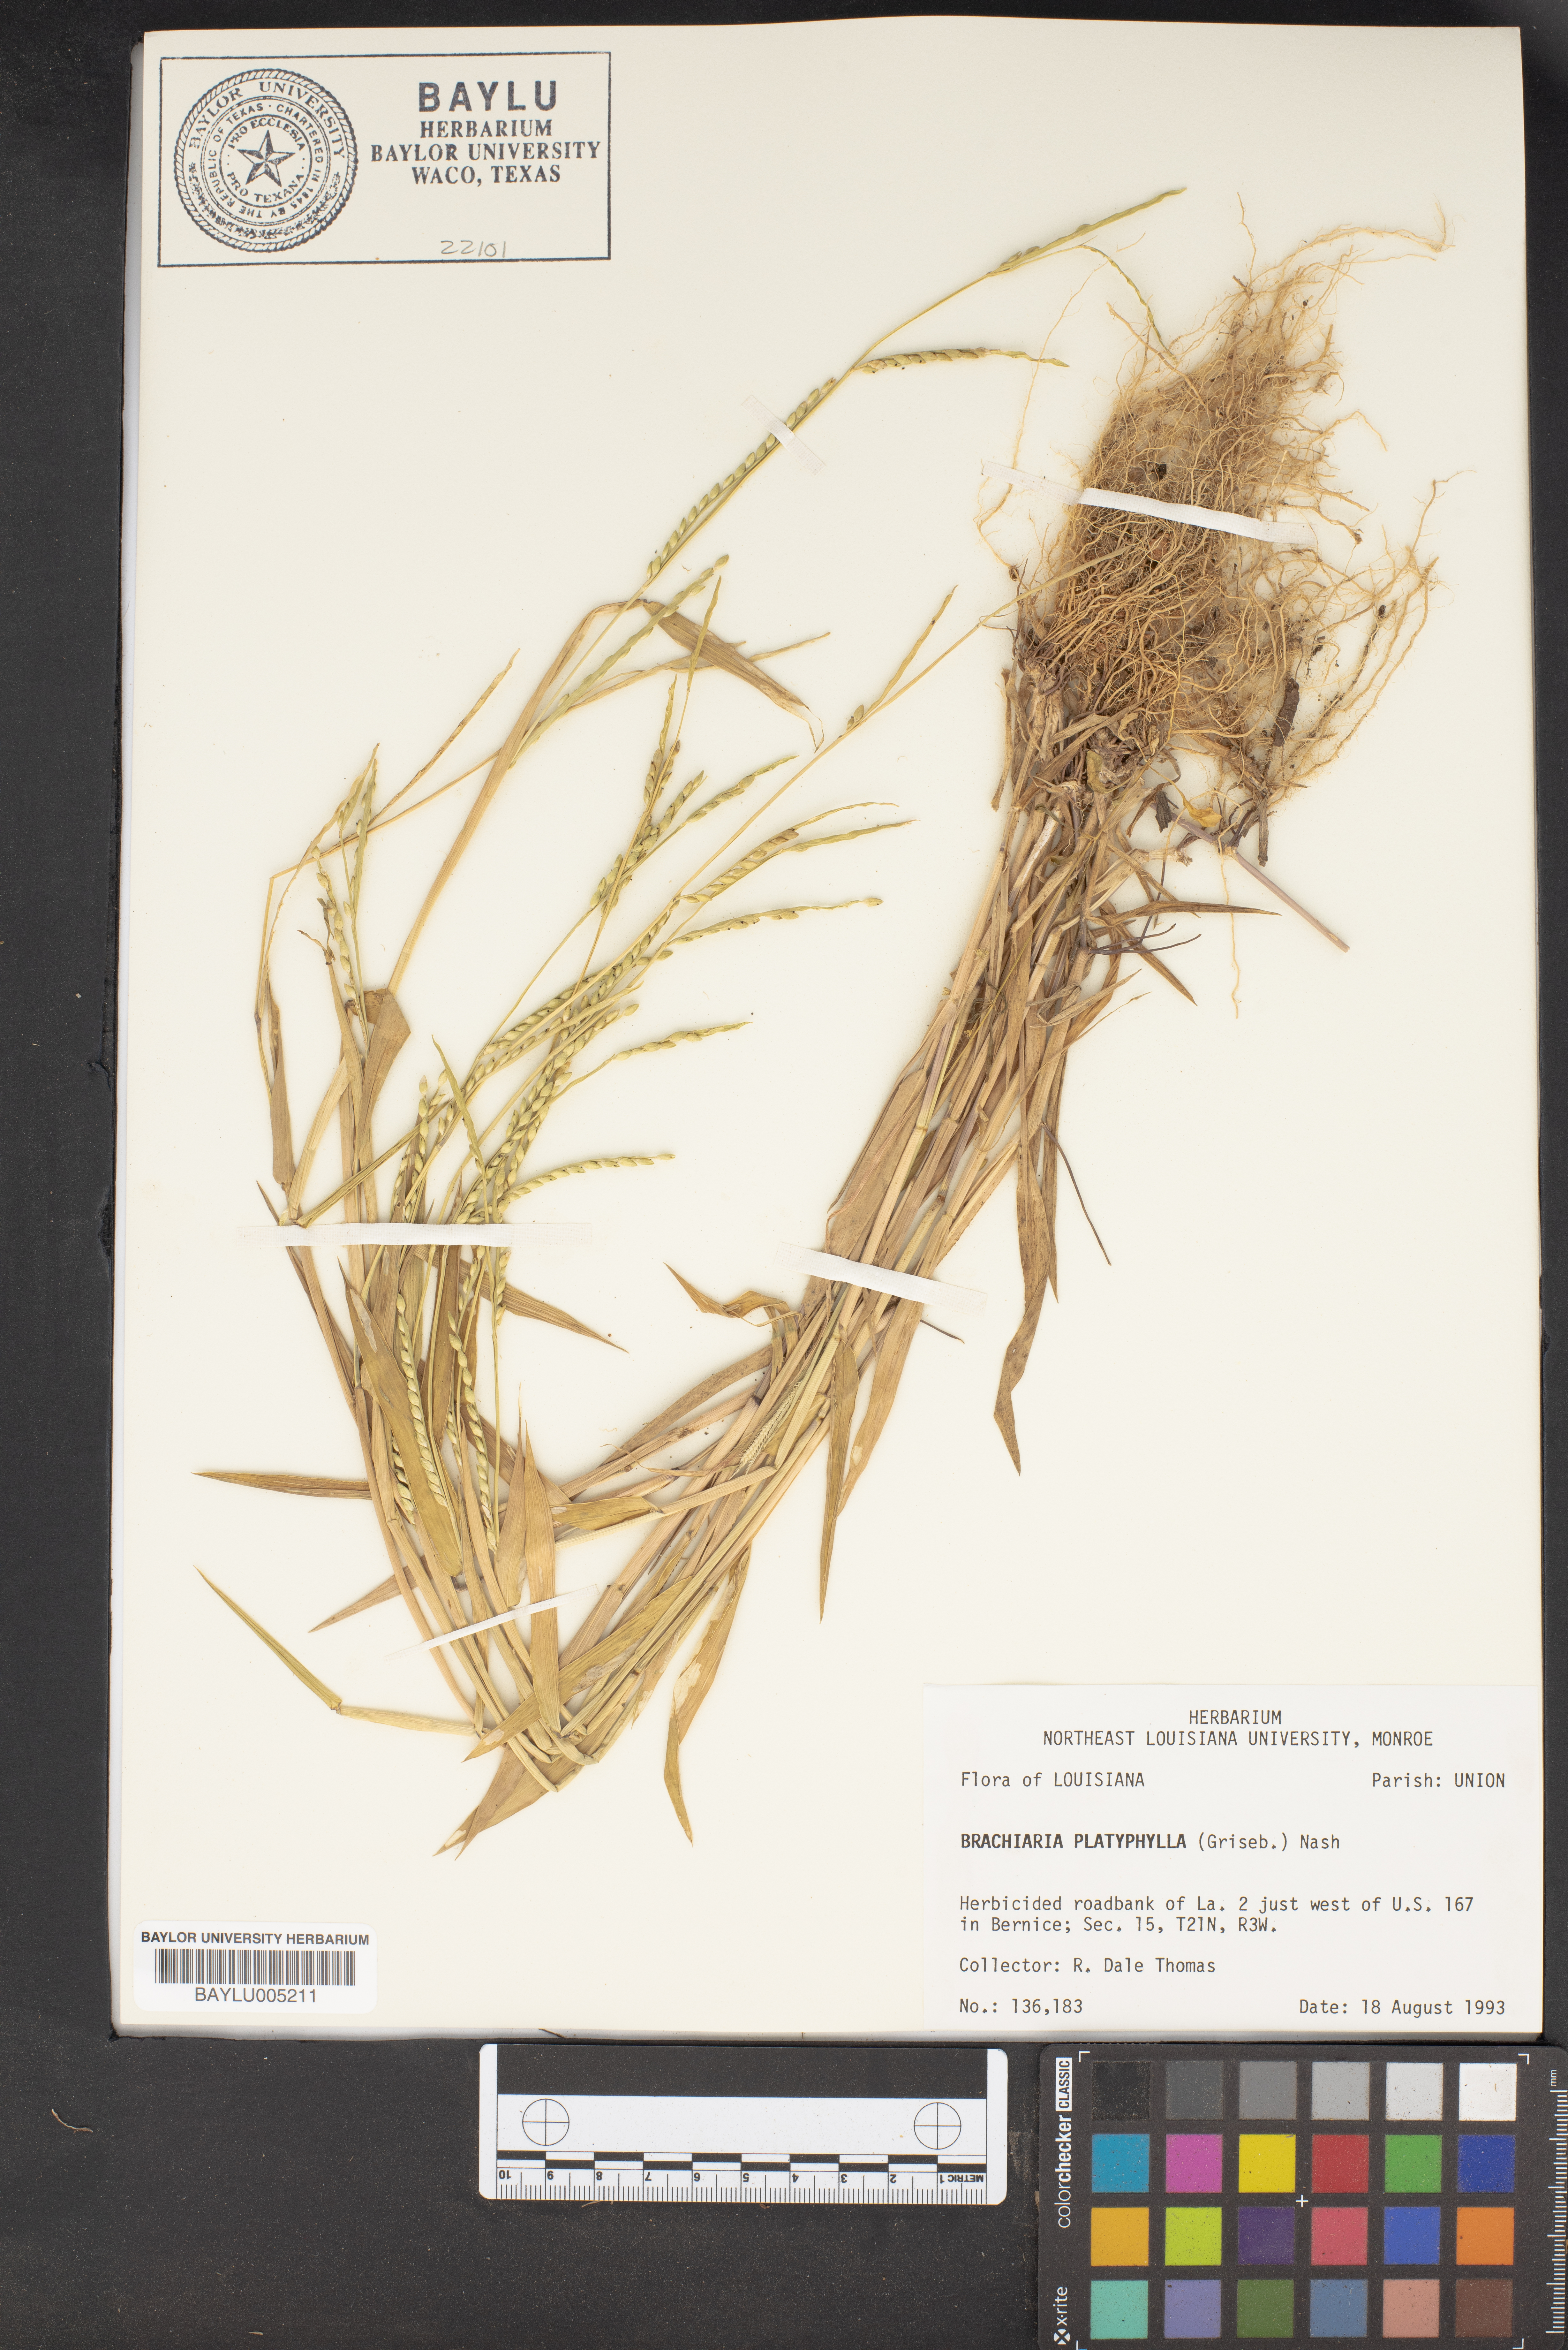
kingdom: Plantae
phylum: Tracheophyta
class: Liliopsida
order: Poales
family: Poaceae
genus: Urochloa
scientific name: Urochloa platyphylla
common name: White para grass
